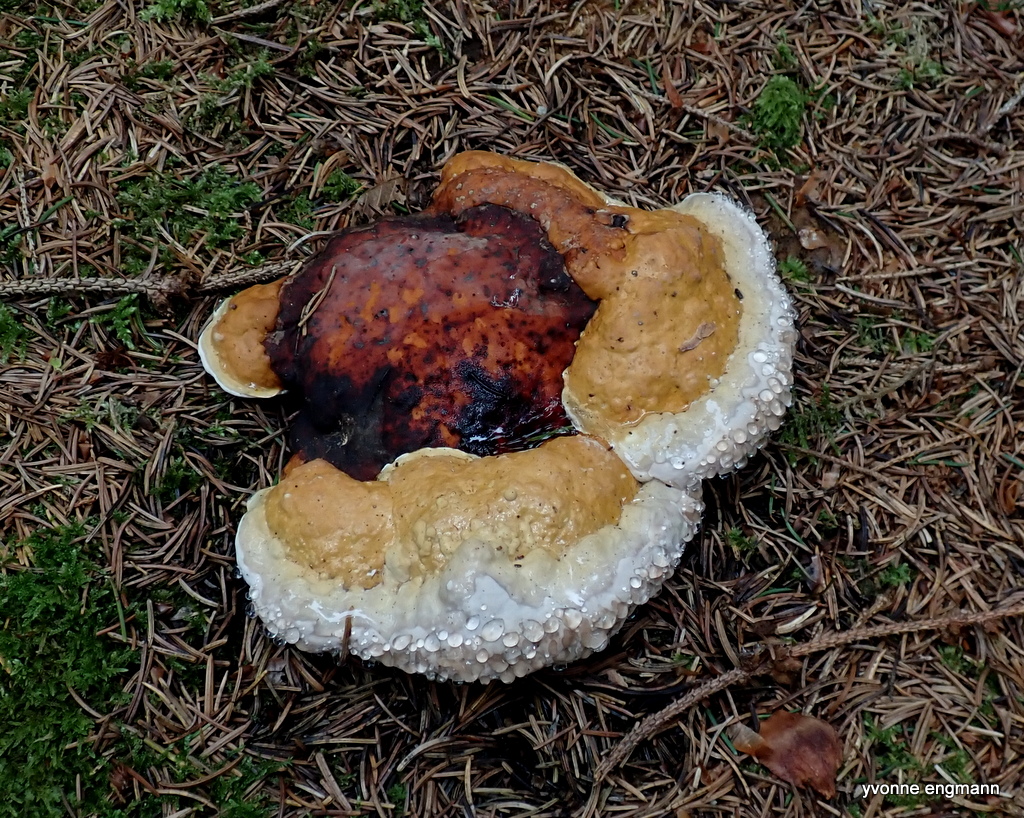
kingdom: Fungi
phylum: Basidiomycota
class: Agaricomycetes
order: Polyporales
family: Fomitopsidaceae
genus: Fomitopsis
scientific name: Fomitopsis pinicola
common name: randbæltet hovporesvamp
